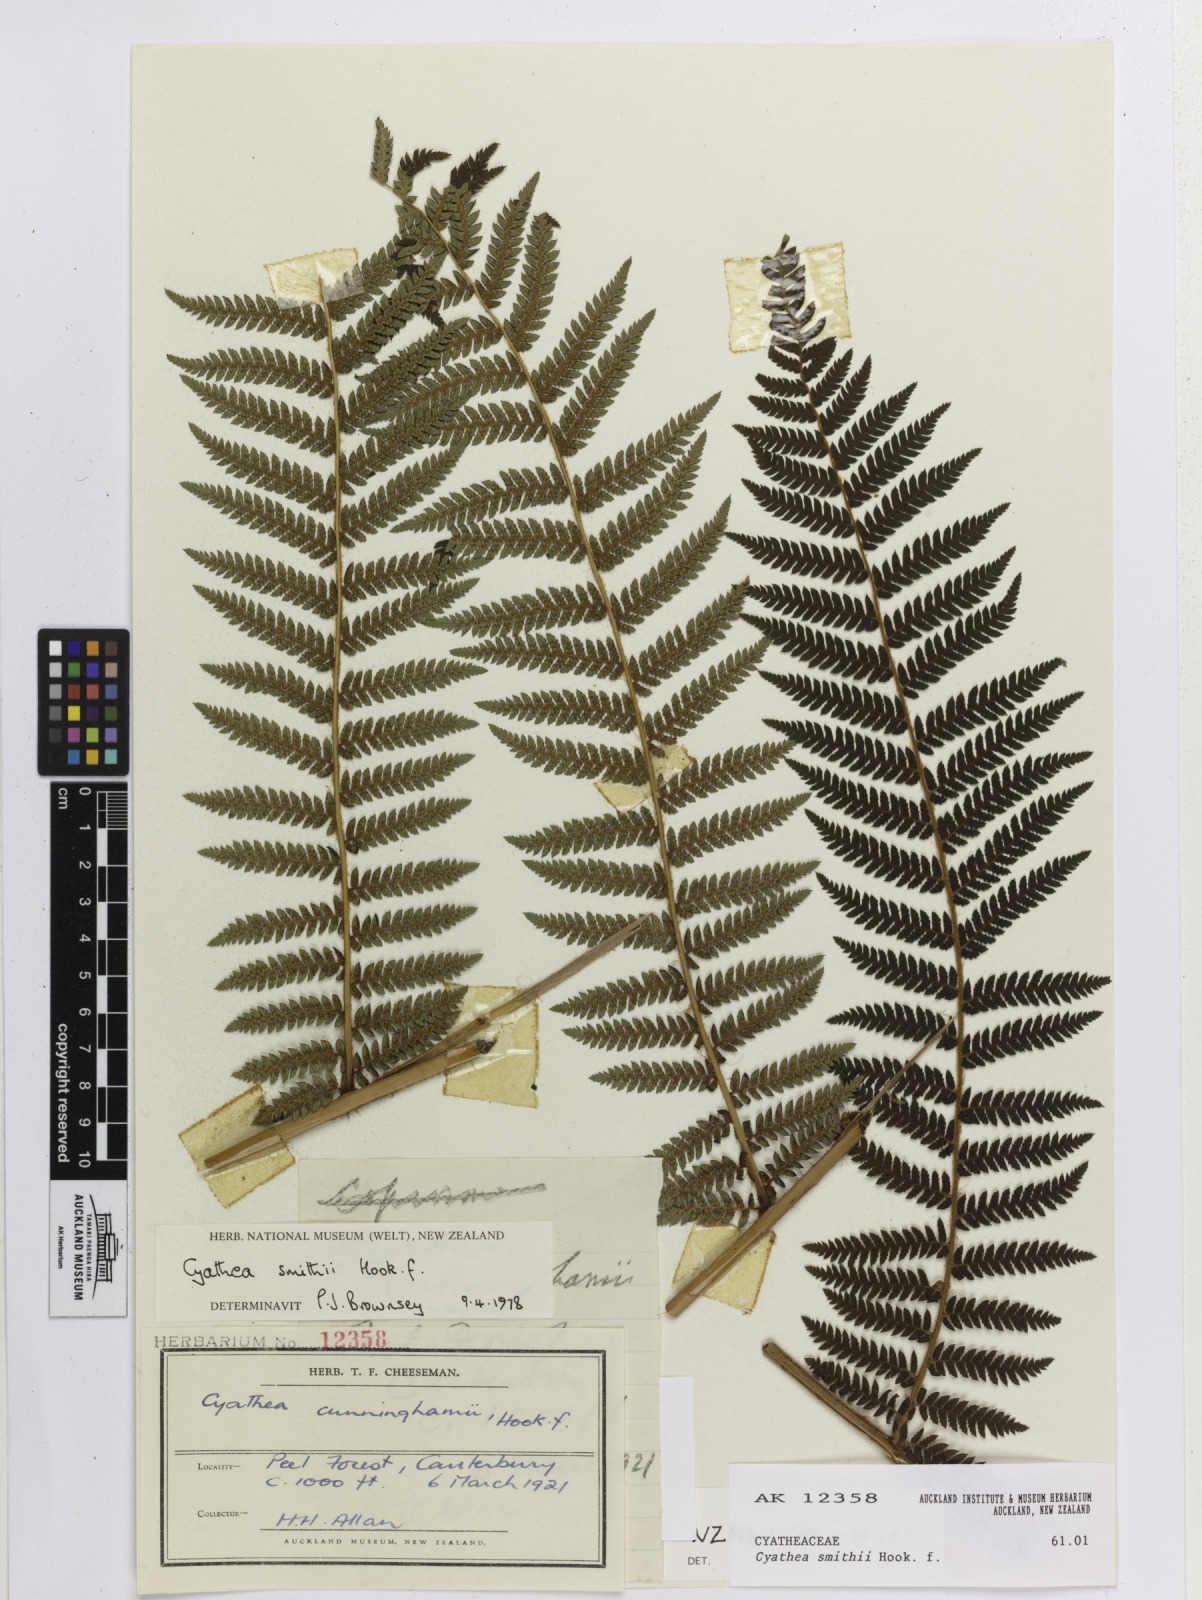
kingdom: Plantae
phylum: Tracheophyta
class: Polypodiopsida
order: Cyatheales
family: Cyatheaceae
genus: Alsophila
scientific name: Alsophila smithii
